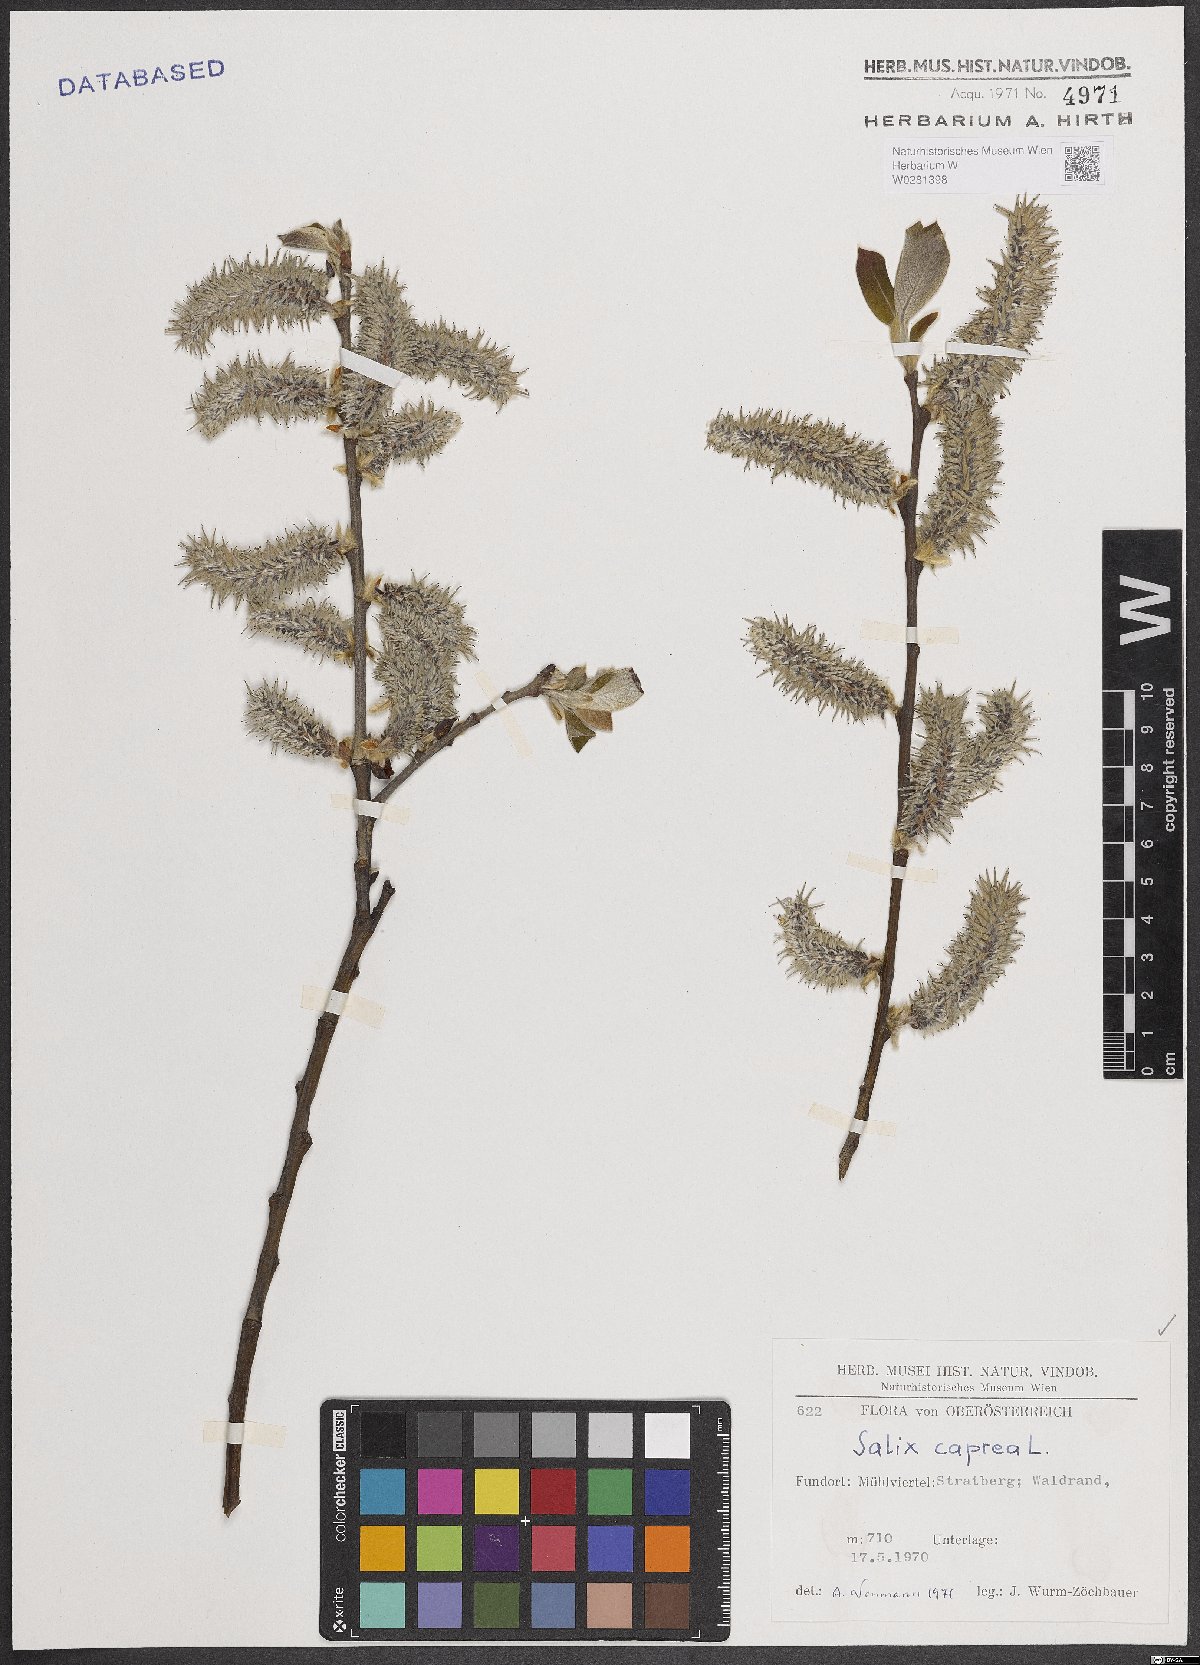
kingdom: Plantae
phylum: Tracheophyta
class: Magnoliopsida
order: Malpighiales
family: Salicaceae
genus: Salix
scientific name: Salix caprea
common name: Goat willow
